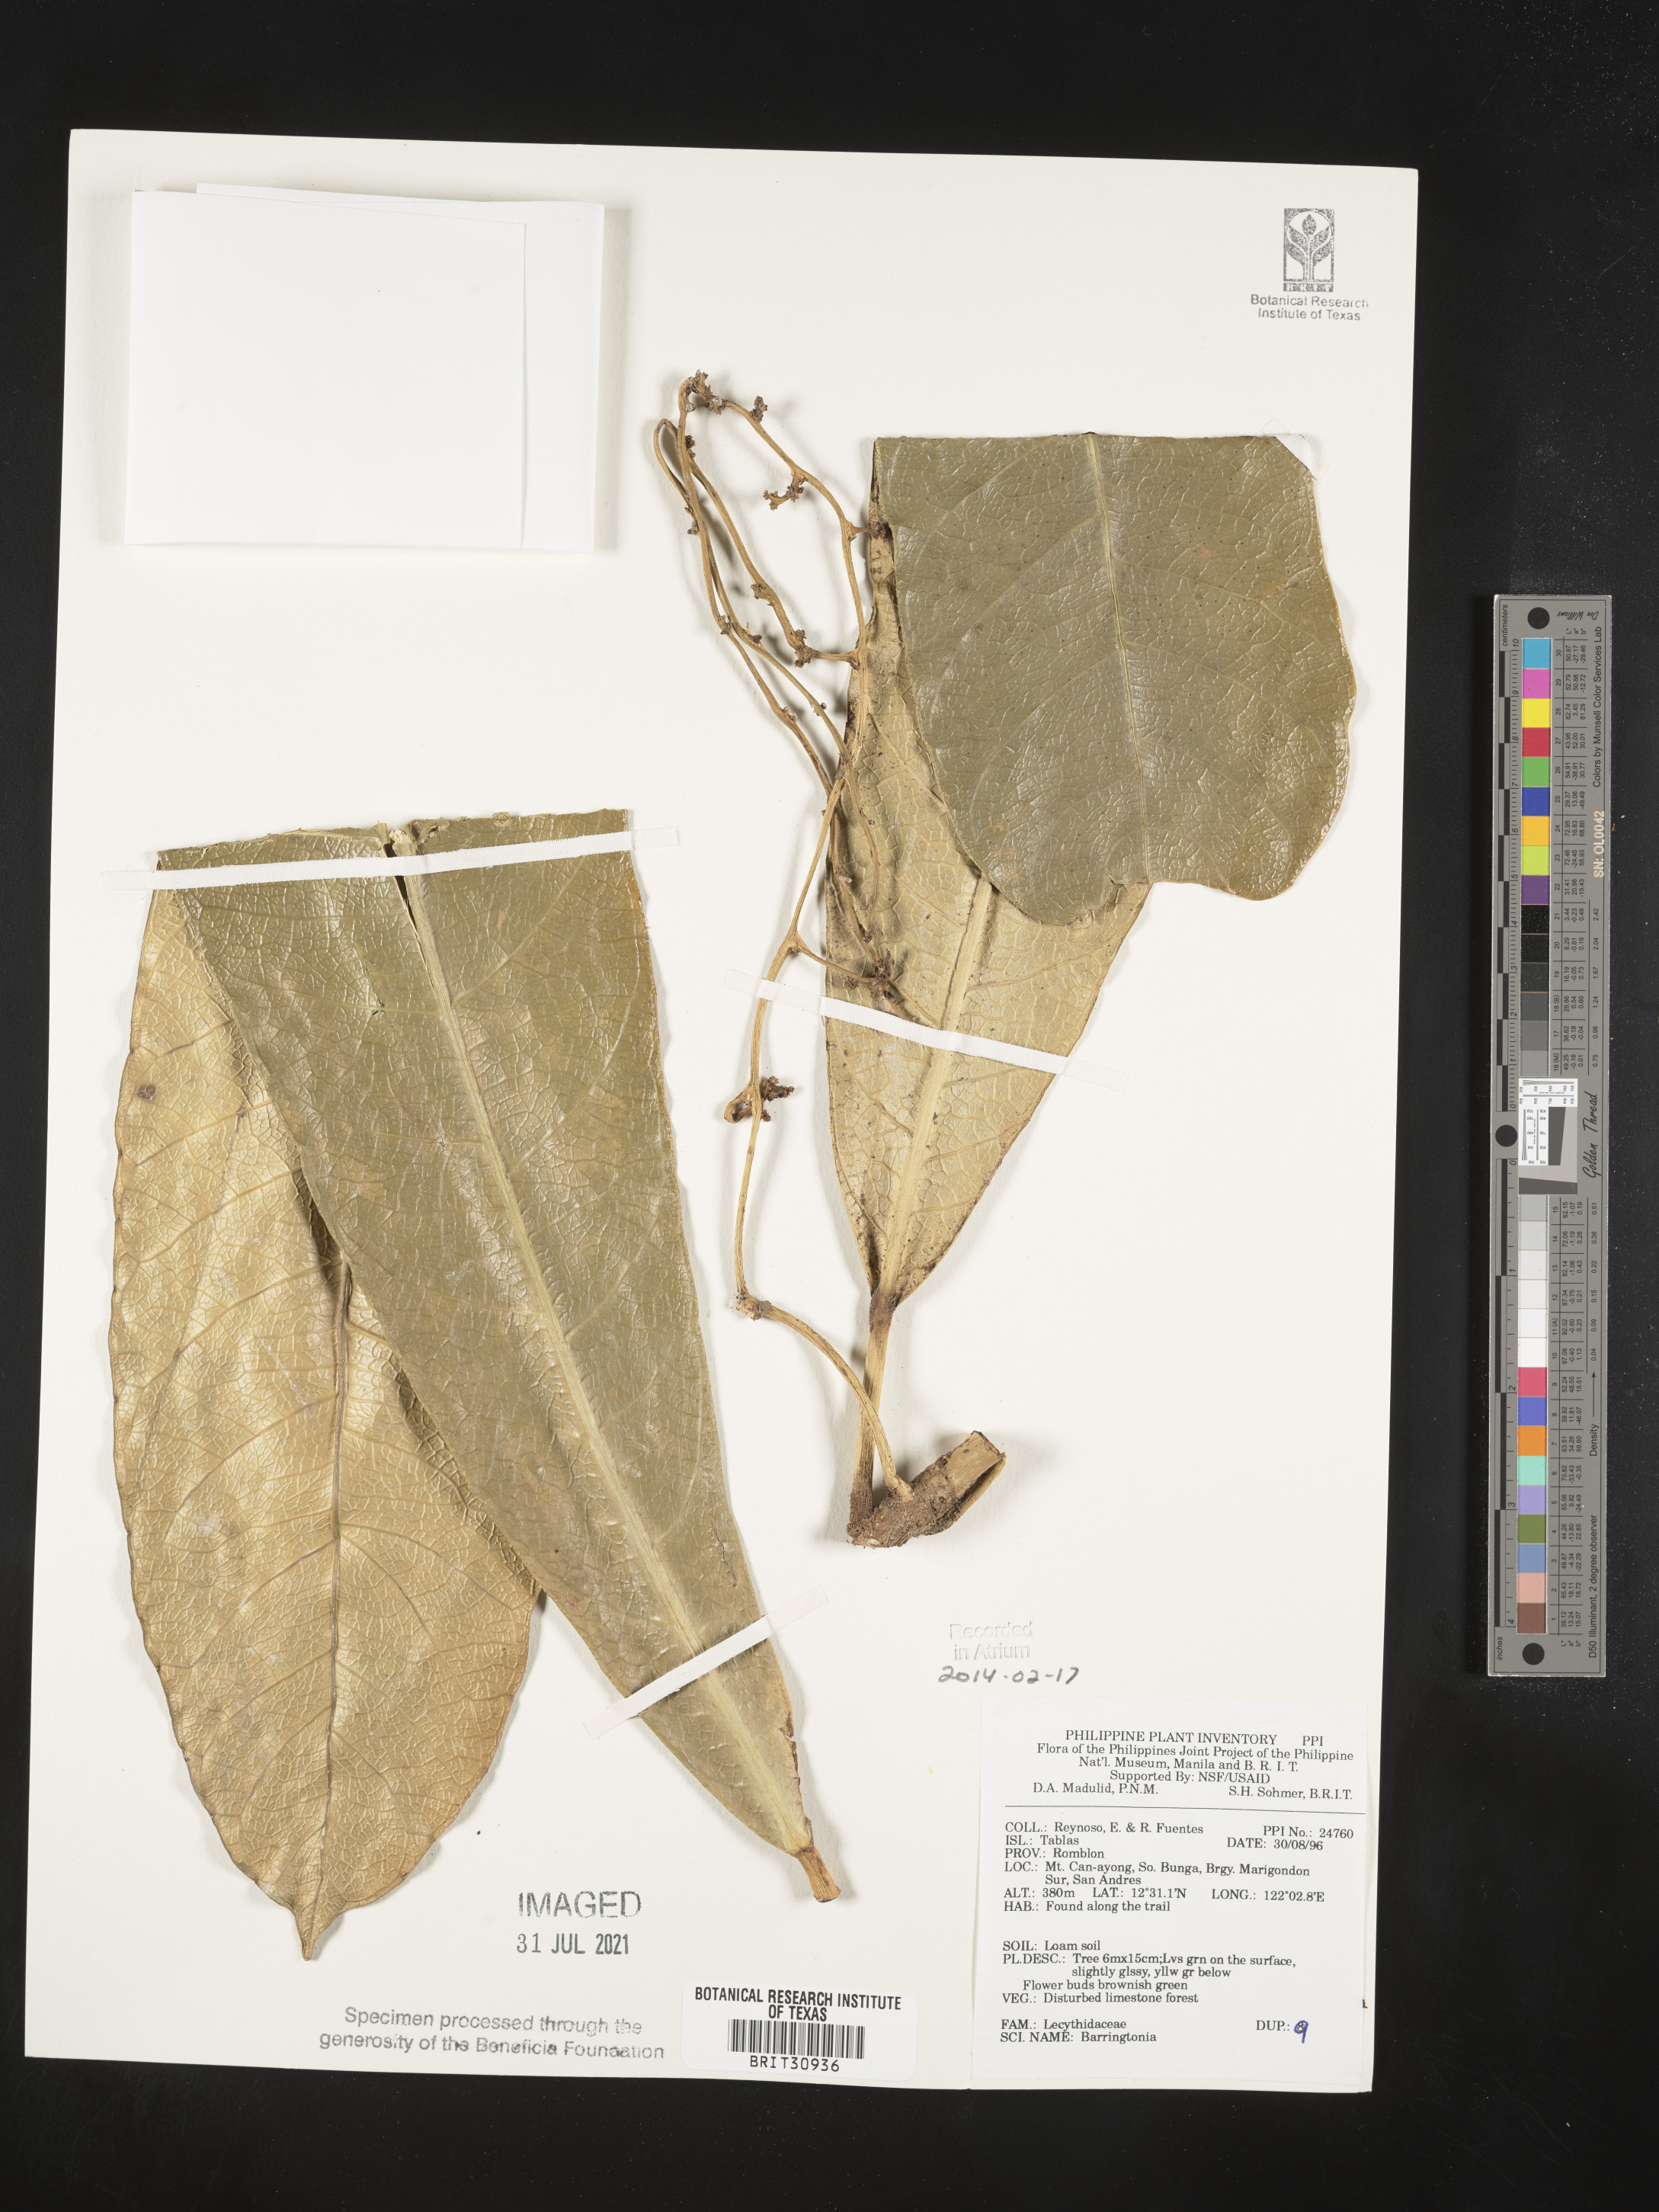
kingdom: Plantae
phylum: Tracheophyta
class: Magnoliopsida
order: Ericales
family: Lecythidaceae
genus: Barringtonia
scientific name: Barringtonia
